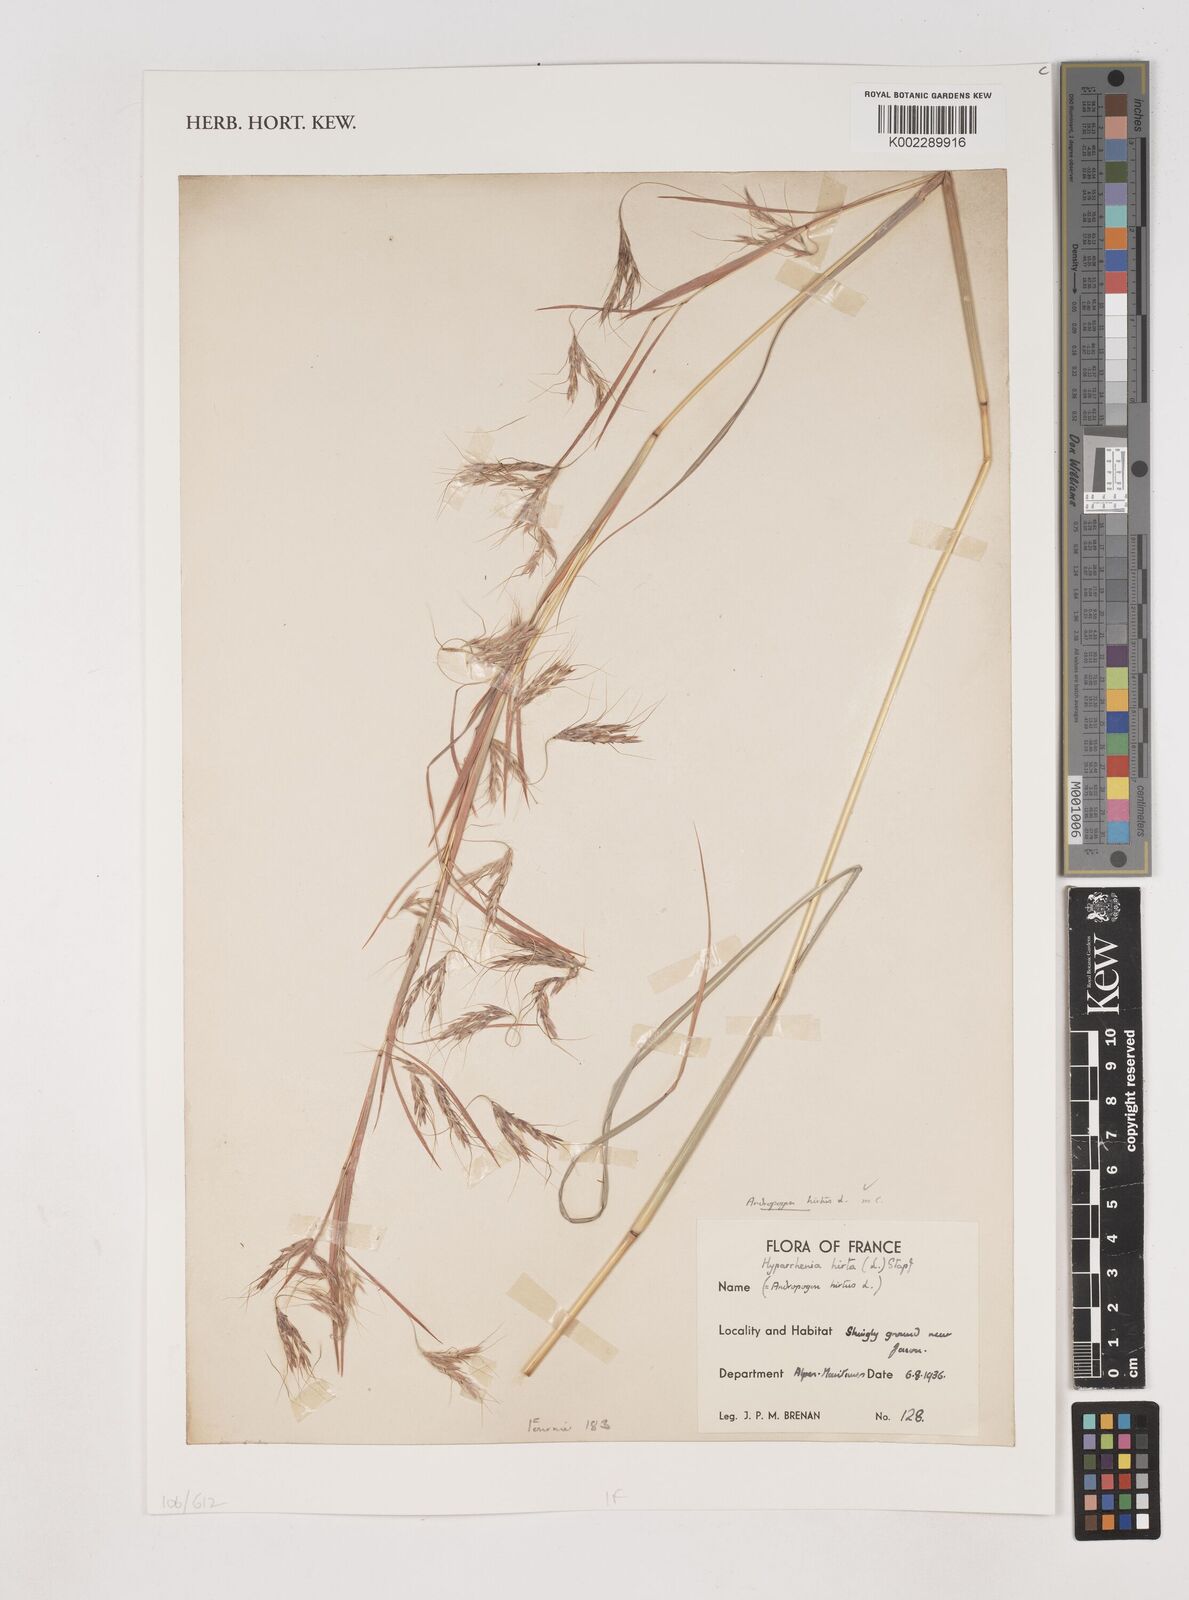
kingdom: Plantae
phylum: Tracheophyta
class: Liliopsida
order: Poales
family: Poaceae
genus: Hyparrhenia
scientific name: Hyparrhenia hirta
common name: Thatching grass
